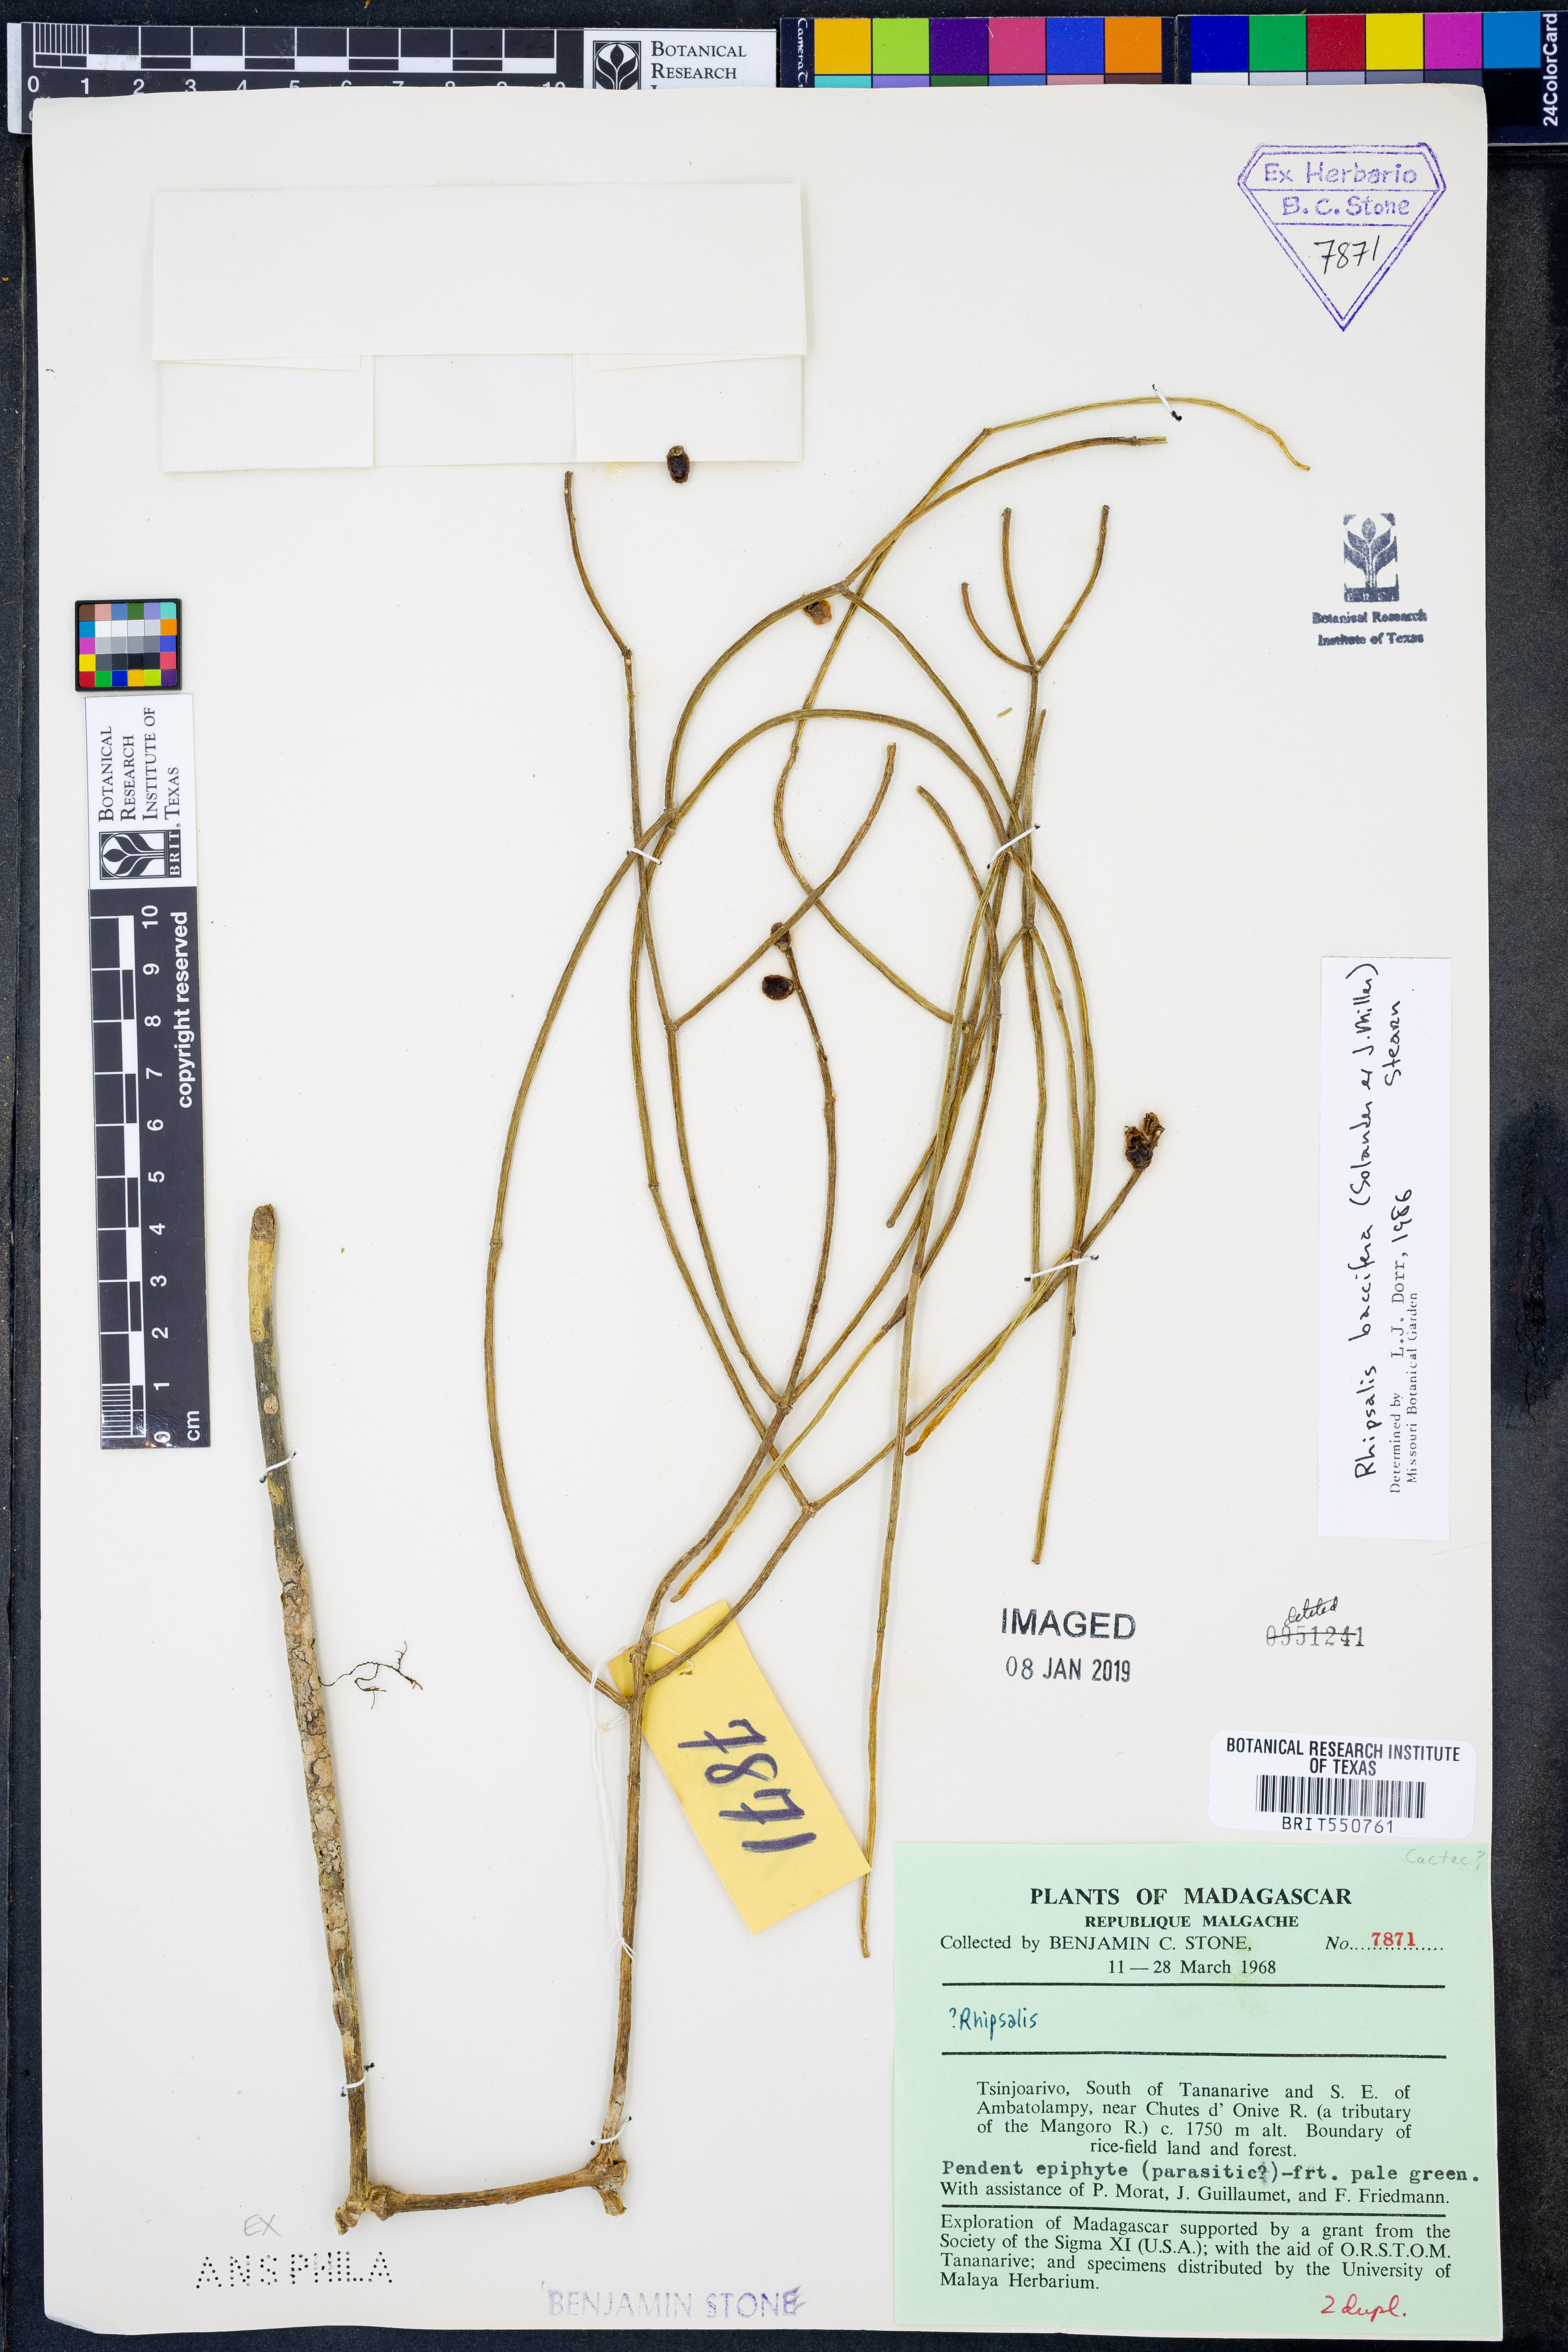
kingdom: Plantae
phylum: Tracheophyta
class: Magnoliopsida
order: Caryophyllales
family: Cactaceae
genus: Rhipsalis
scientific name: Rhipsalis baccifera
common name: Mistletoe cactus
